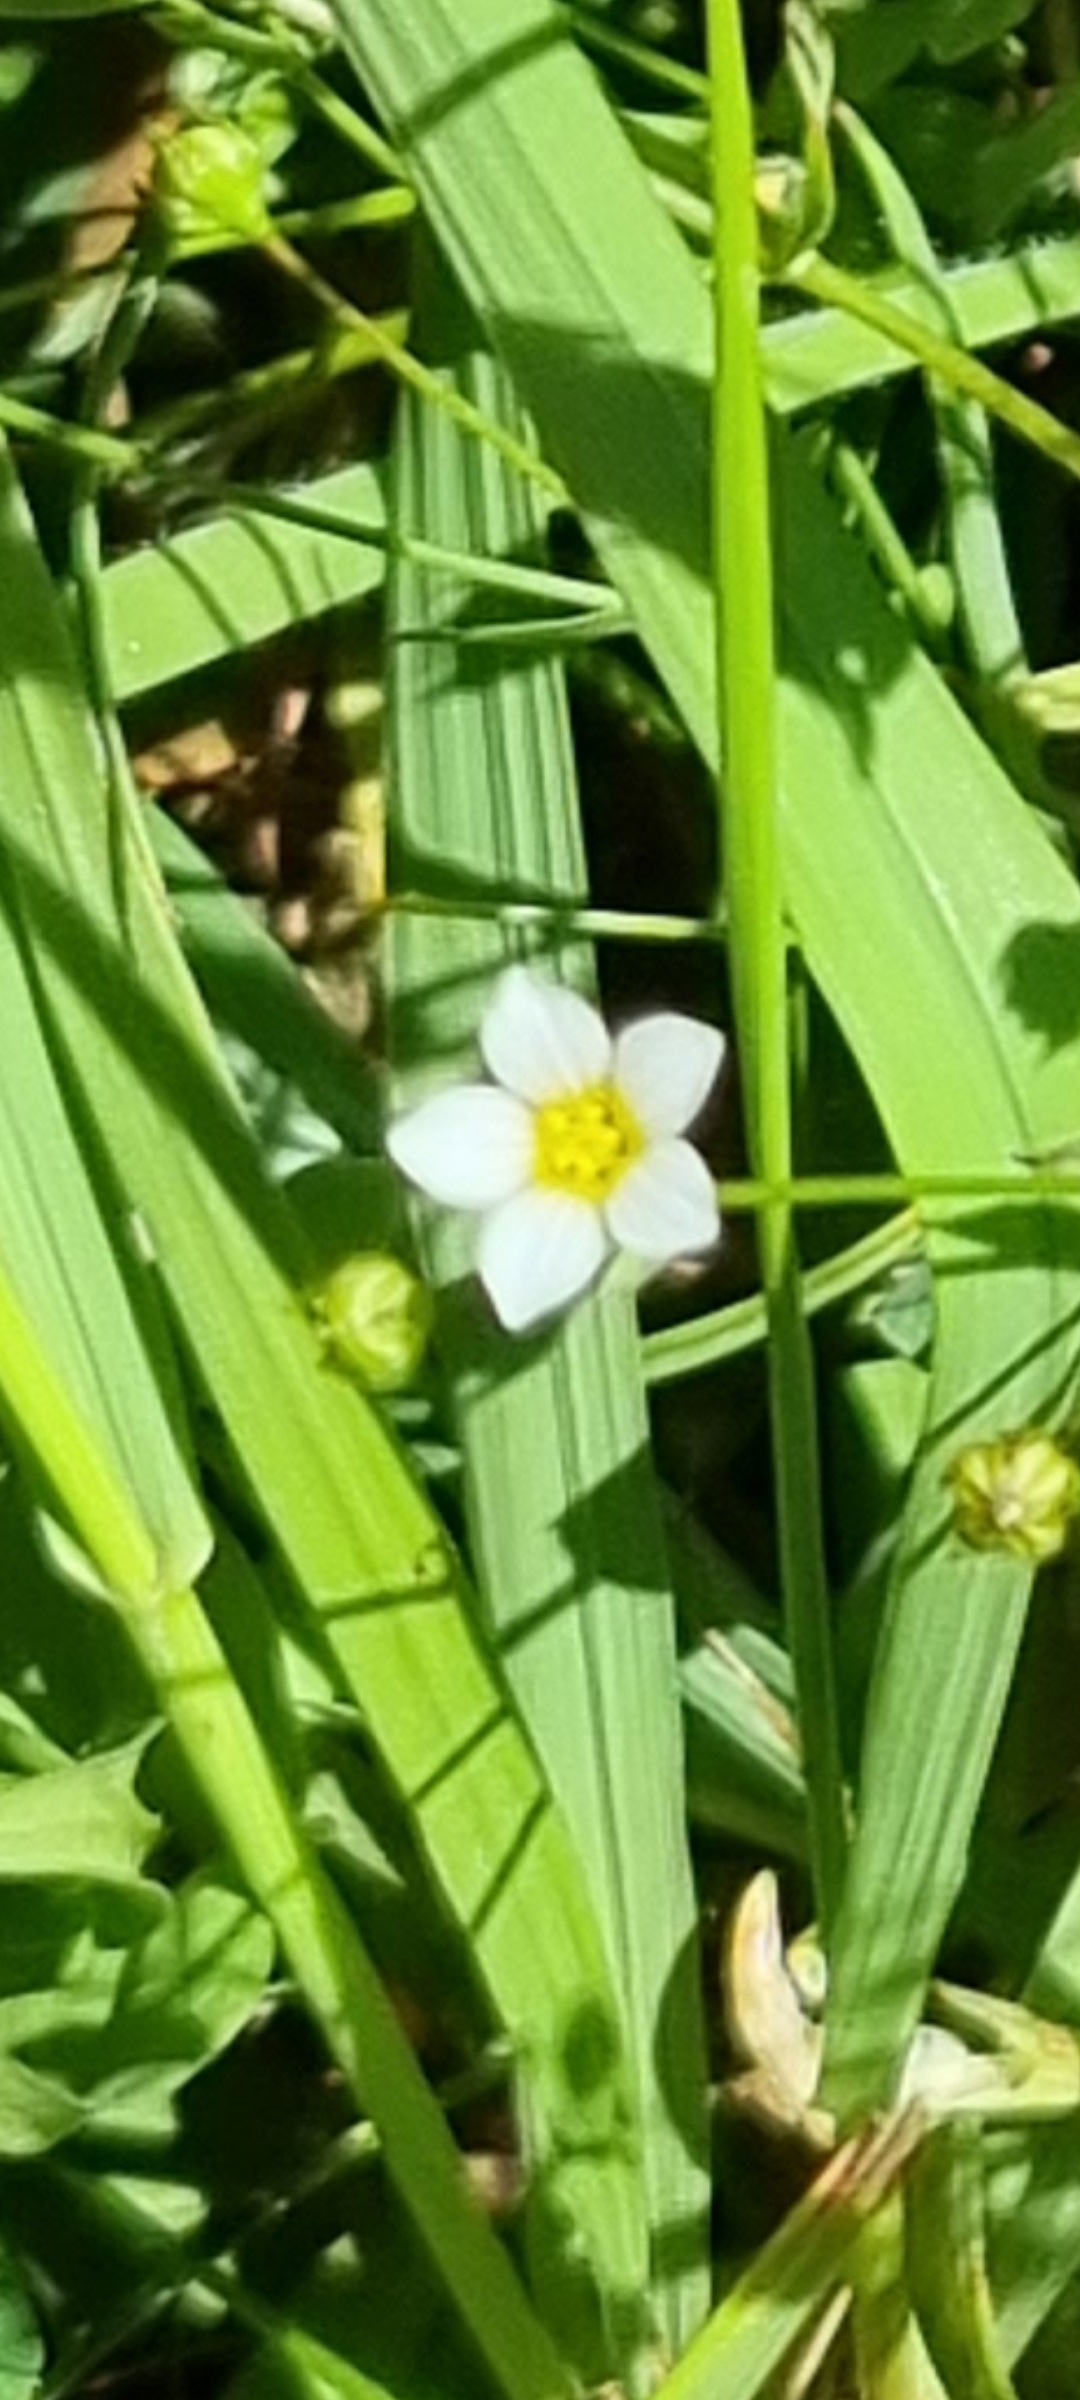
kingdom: Plantae
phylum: Tracheophyta
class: Magnoliopsida
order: Malpighiales
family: Linaceae
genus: Linum
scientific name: Linum catharticum
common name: Vild hør
